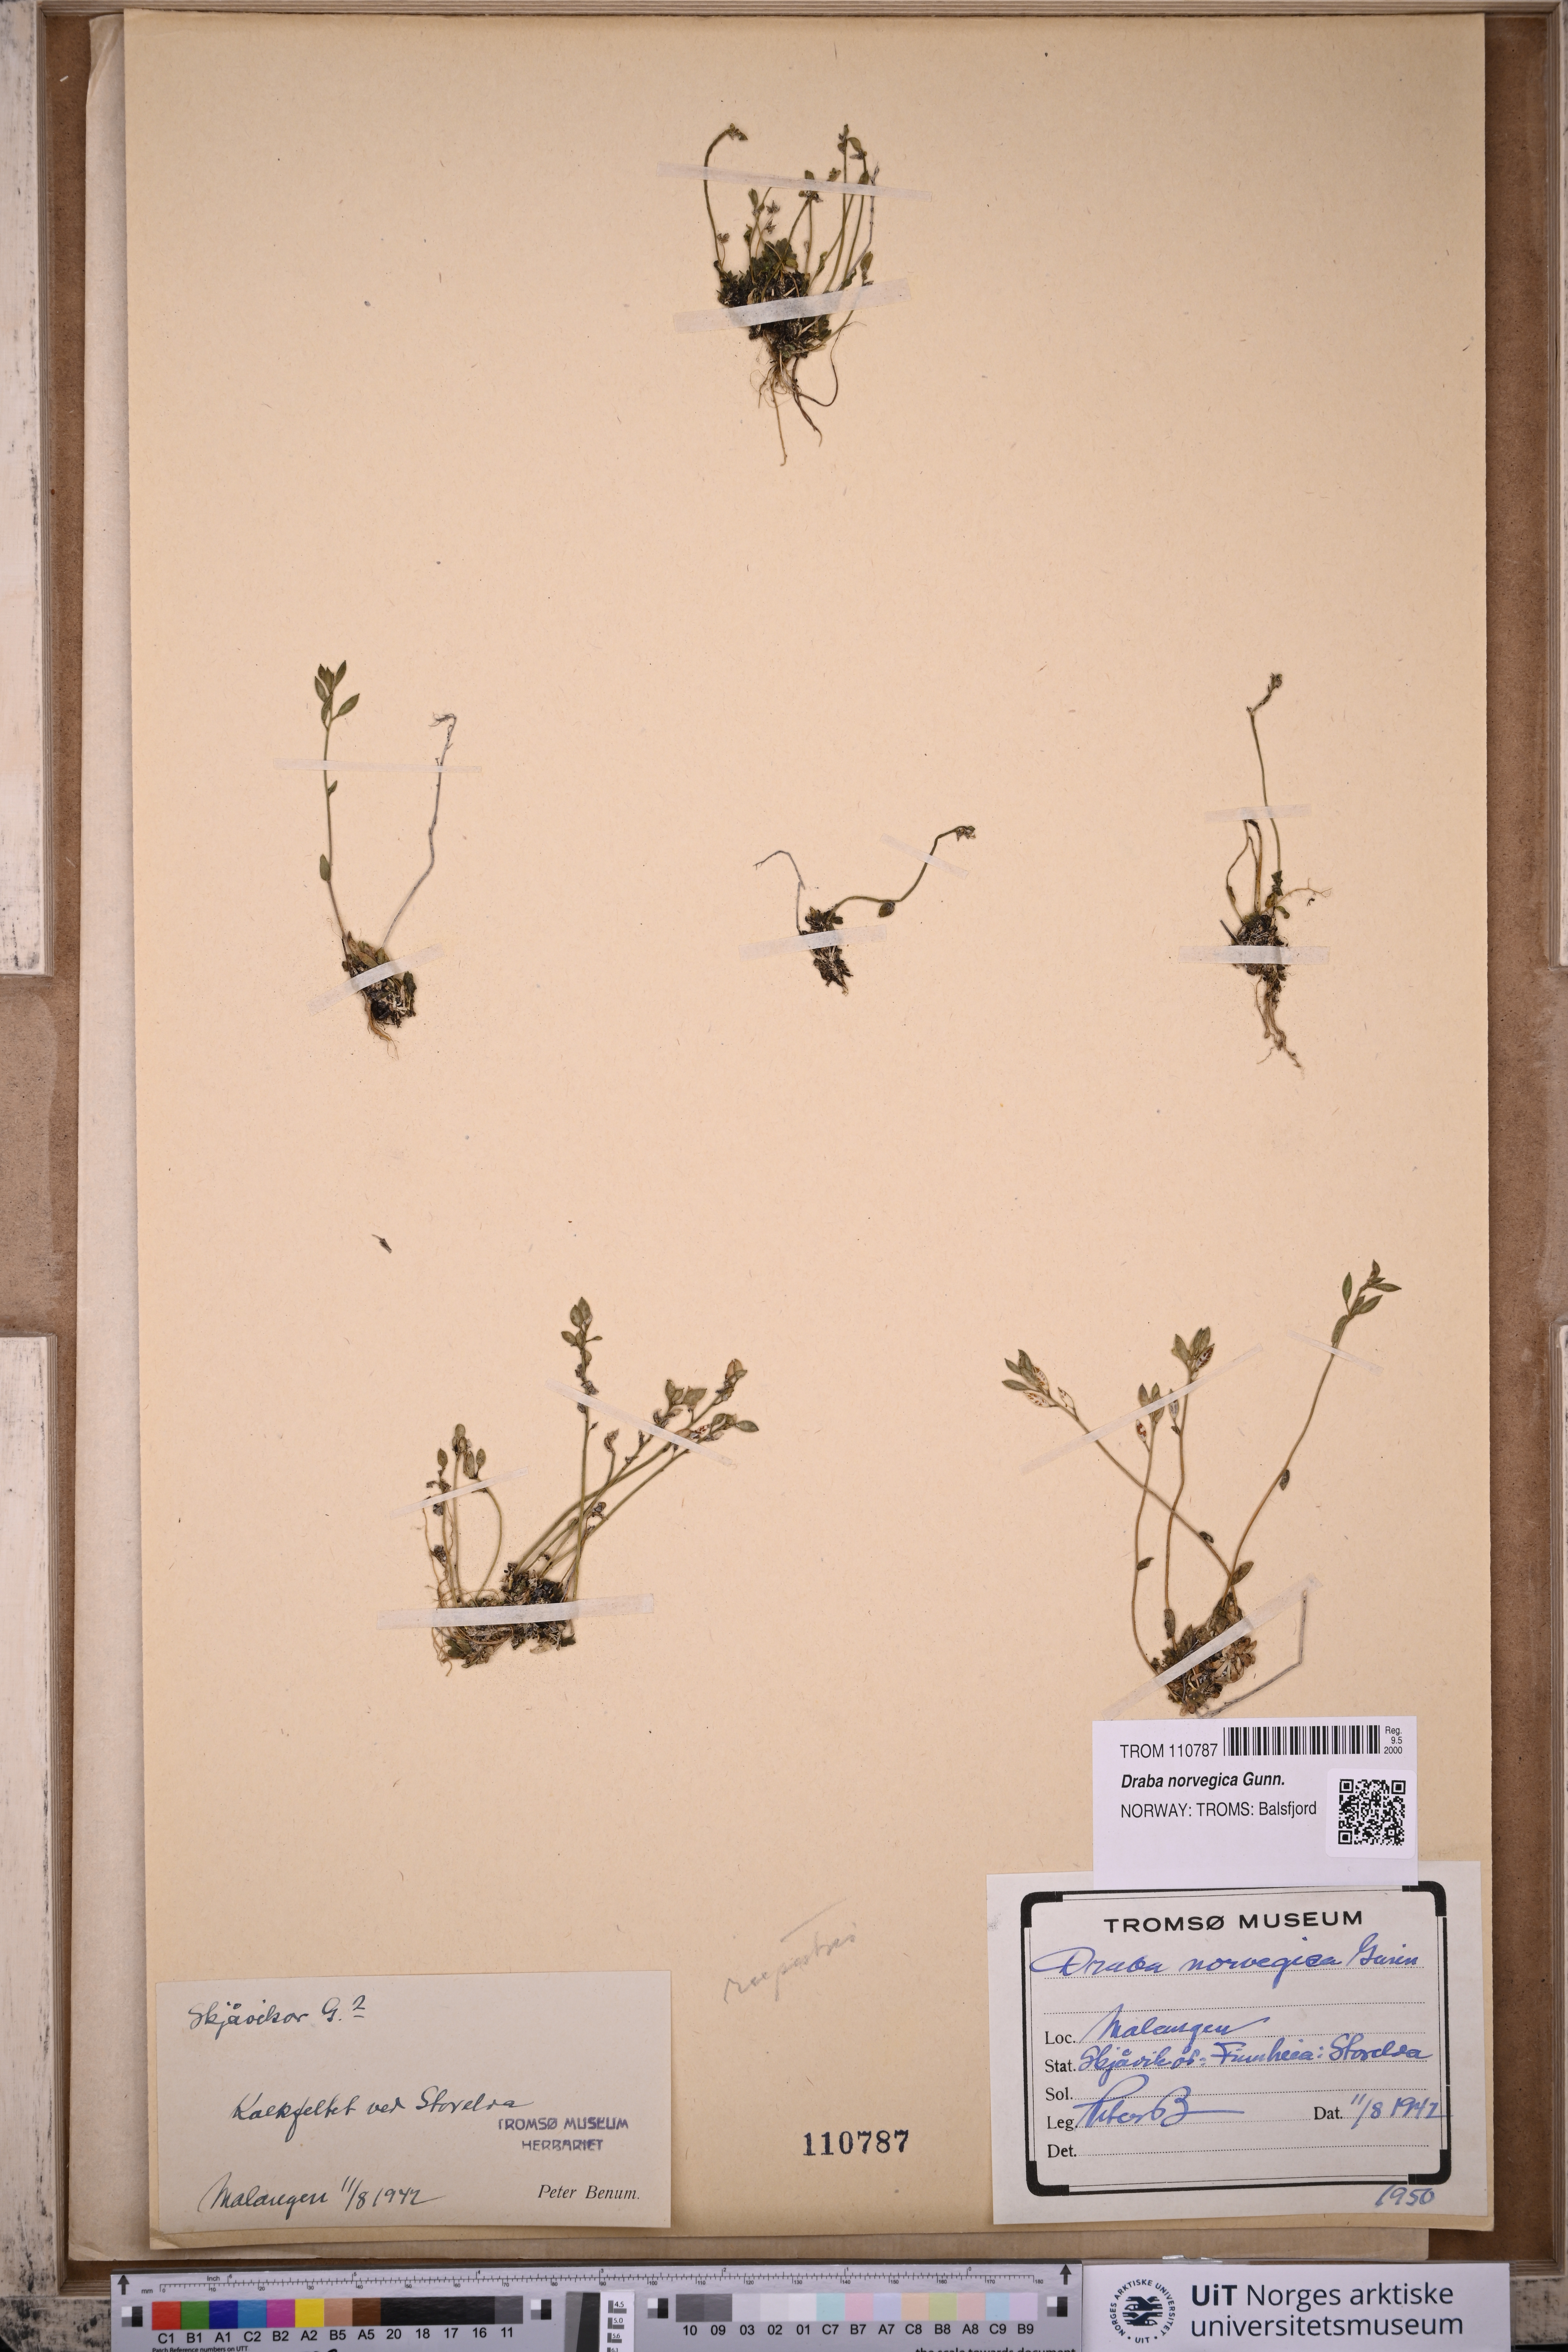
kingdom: Plantae
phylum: Tracheophyta
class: Magnoliopsida
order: Brassicales
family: Brassicaceae
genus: Draba
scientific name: Draba norvegica
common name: Rock whitlowgrass
